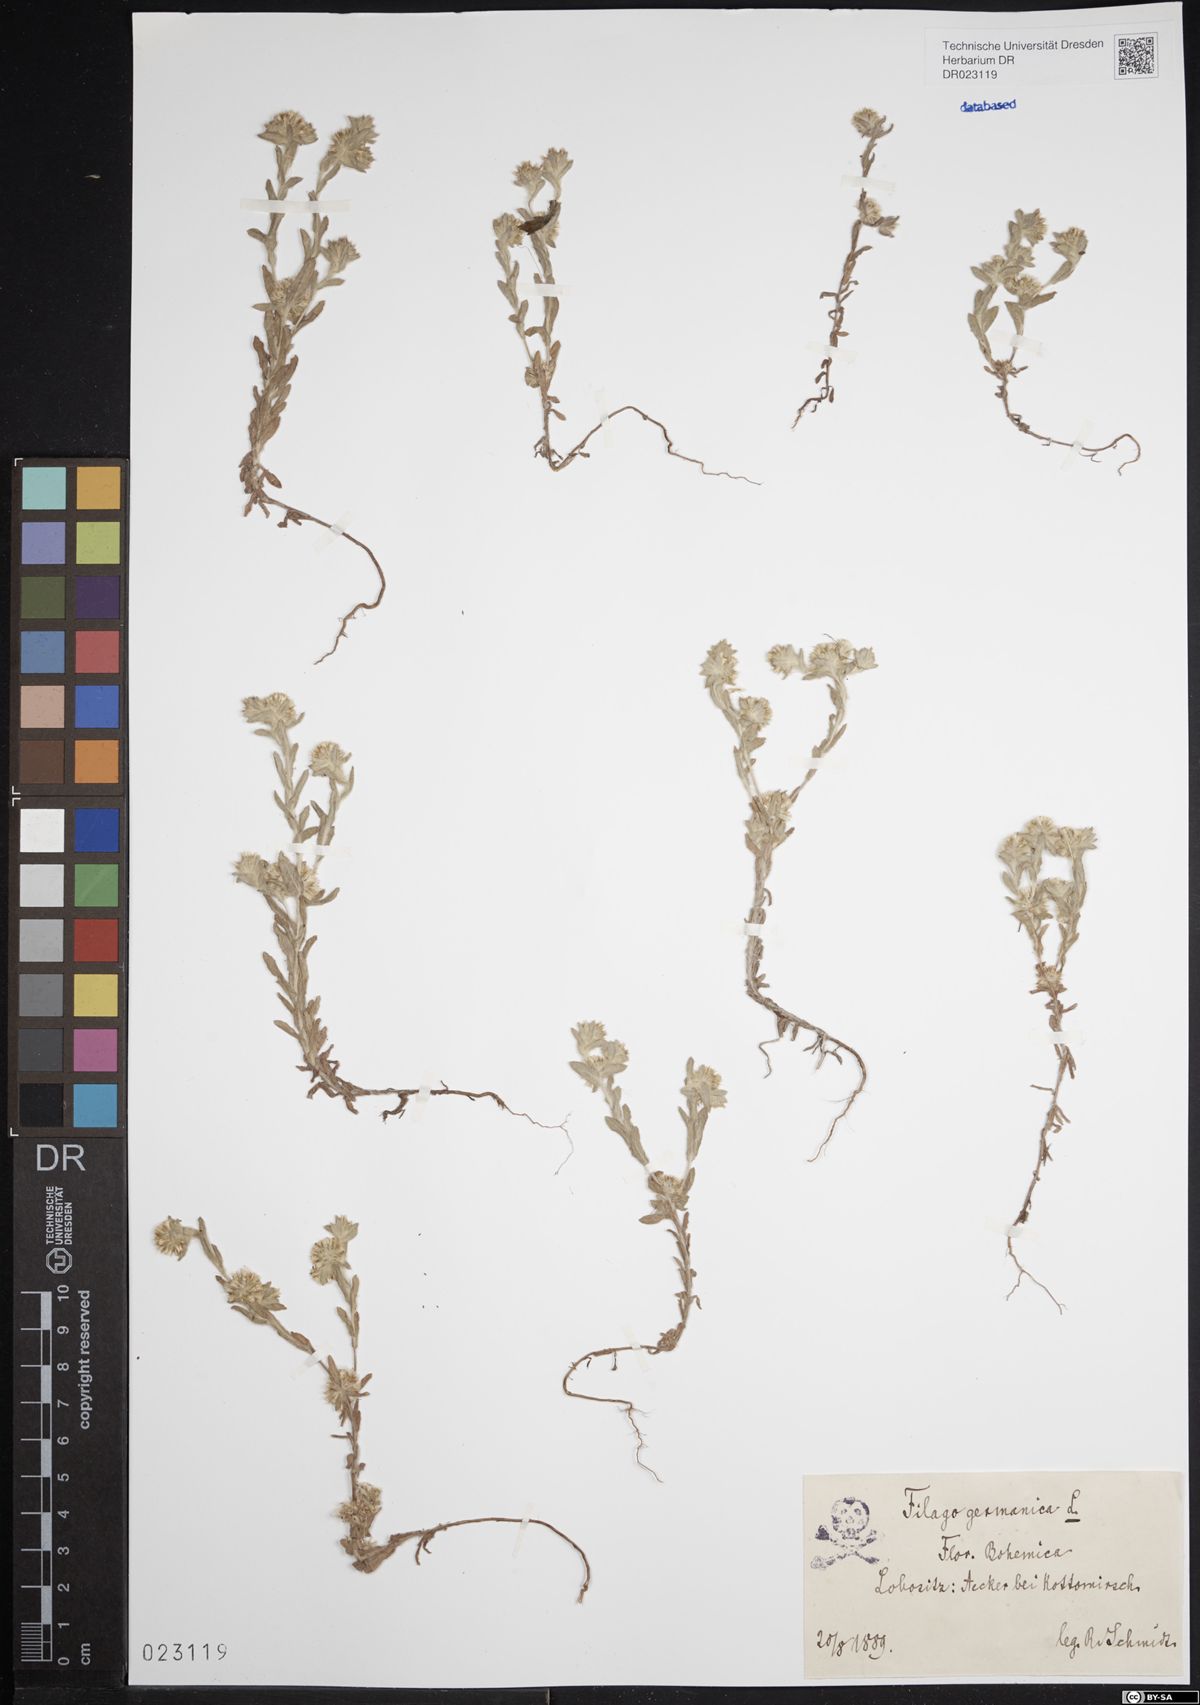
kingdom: Plantae
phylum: Tracheophyta
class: Magnoliopsida
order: Asterales
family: Asteraceae
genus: Filago
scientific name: Filago germanica
